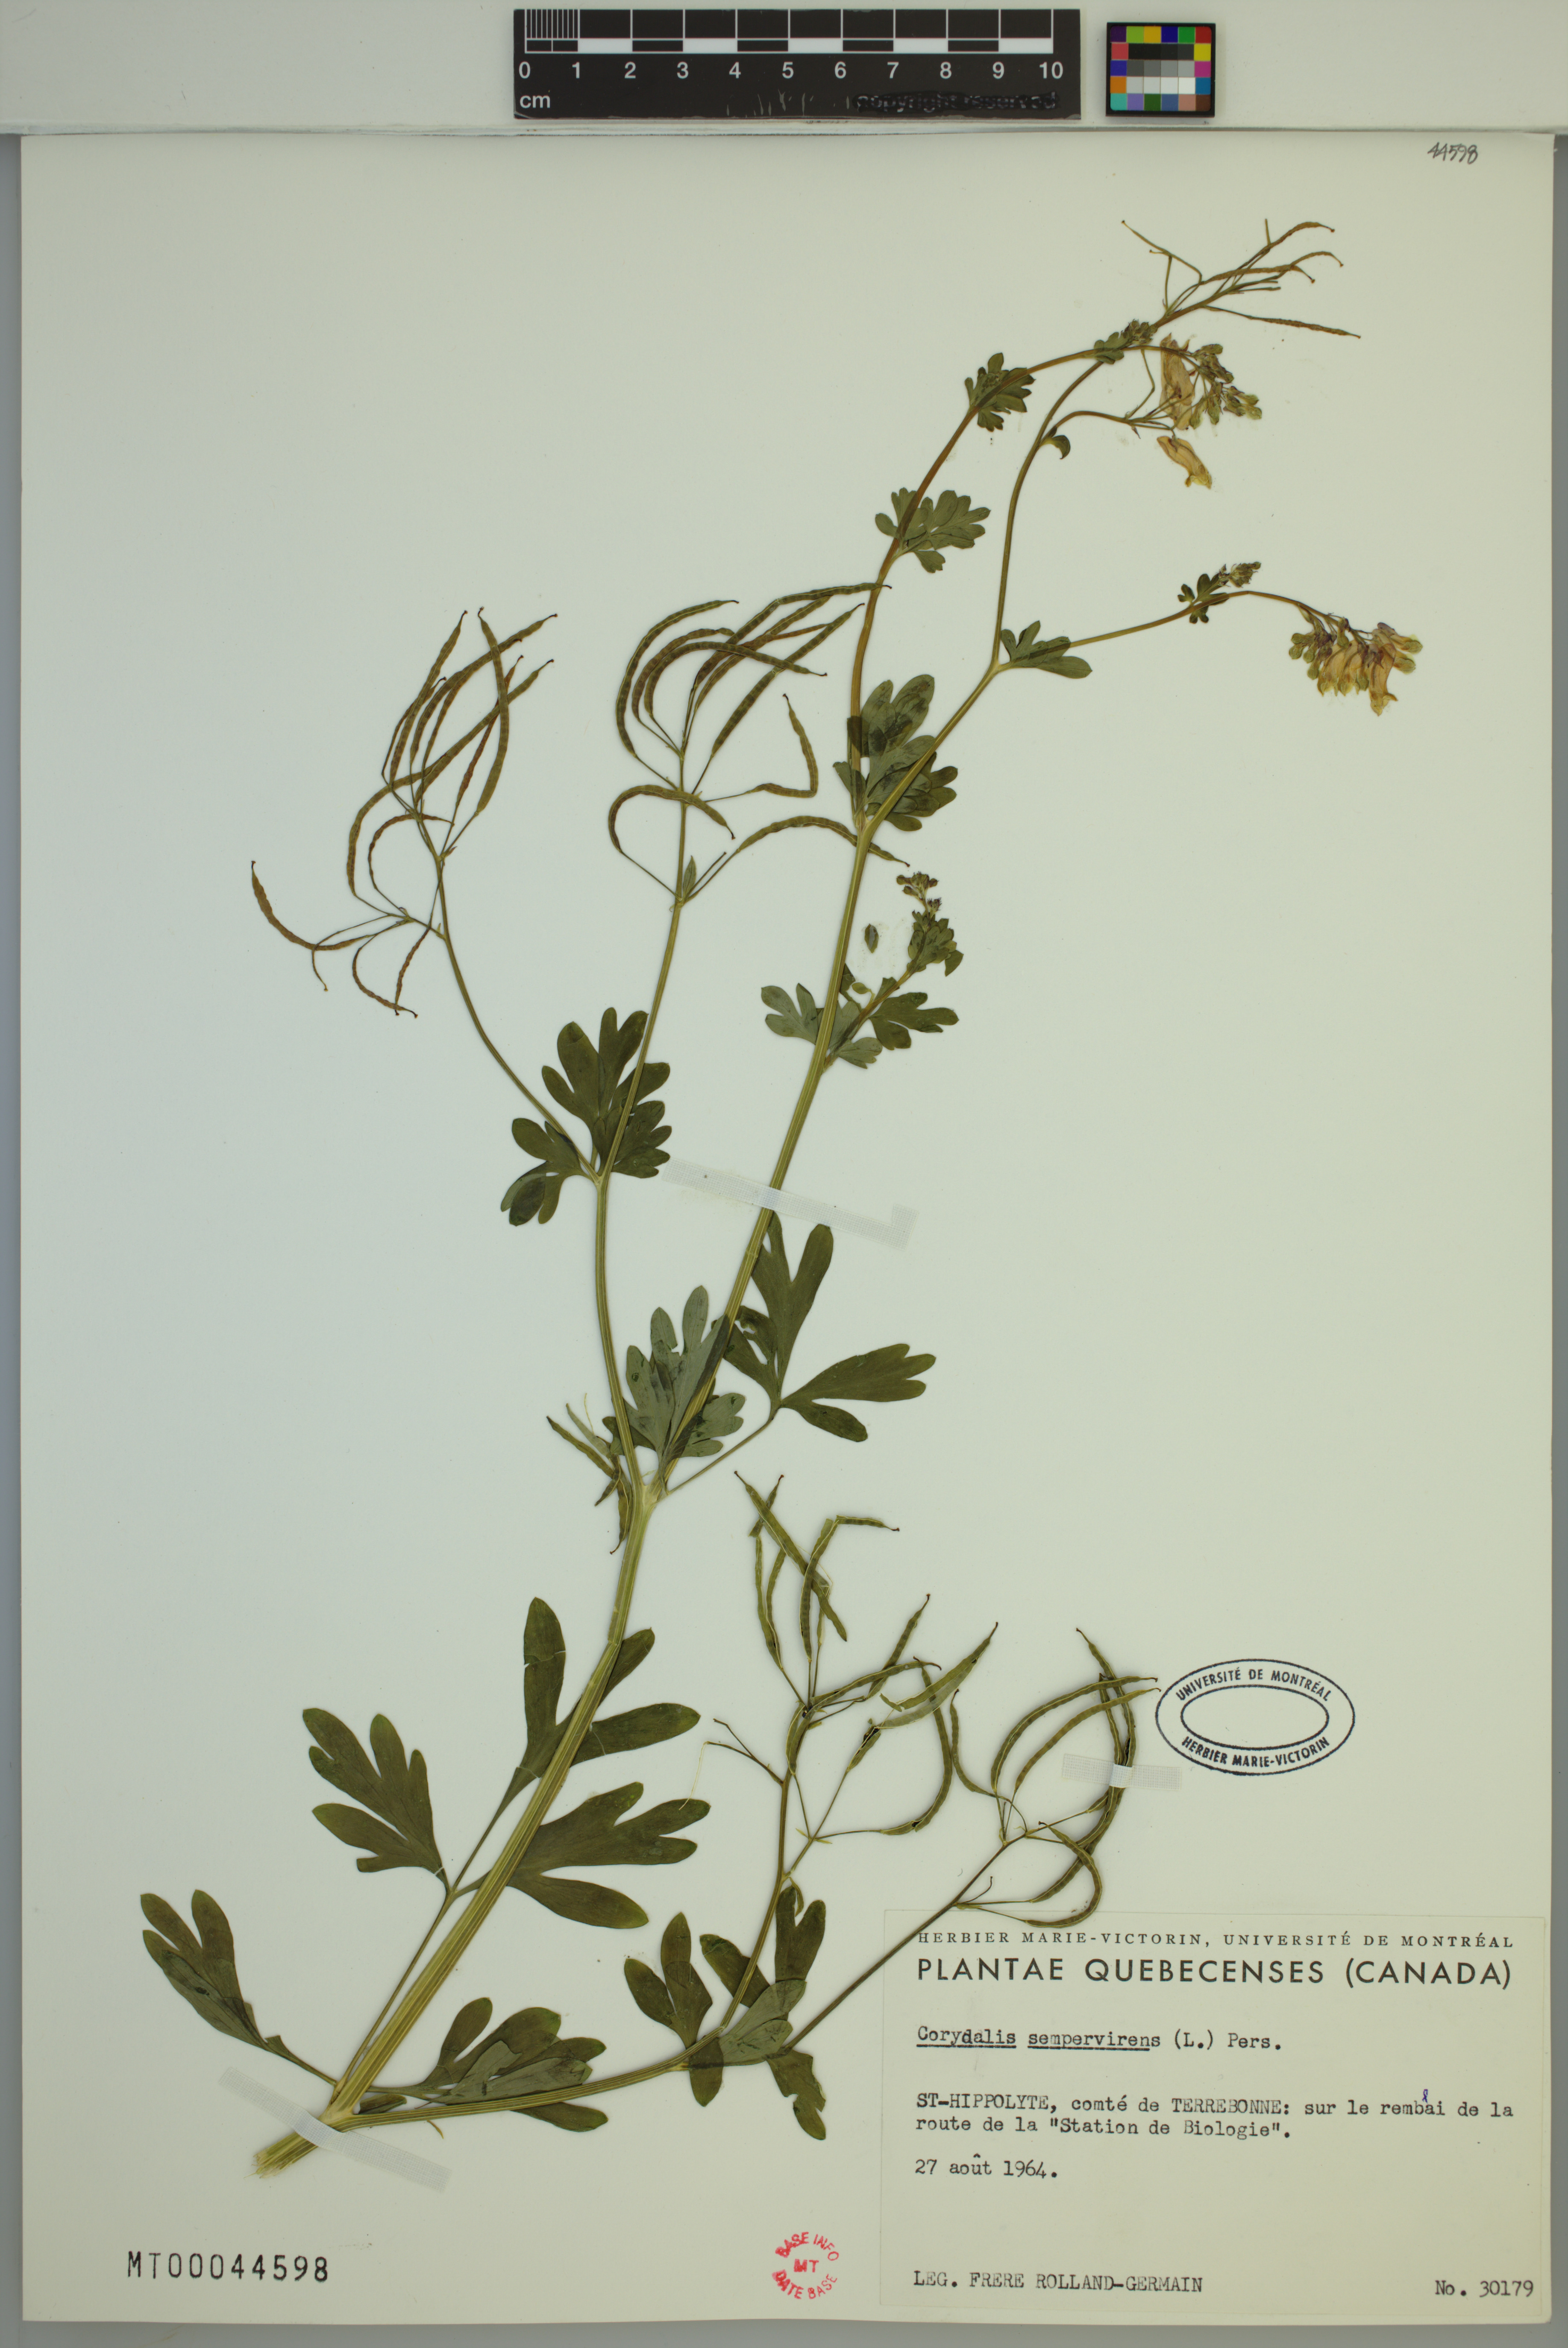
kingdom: Plantae
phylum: Tracheophyta
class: Magnoliopsida
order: Ranunculales
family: Papaveraceae
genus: Capnoides
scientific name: Capnoides sempervirens
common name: Rock harlequin
